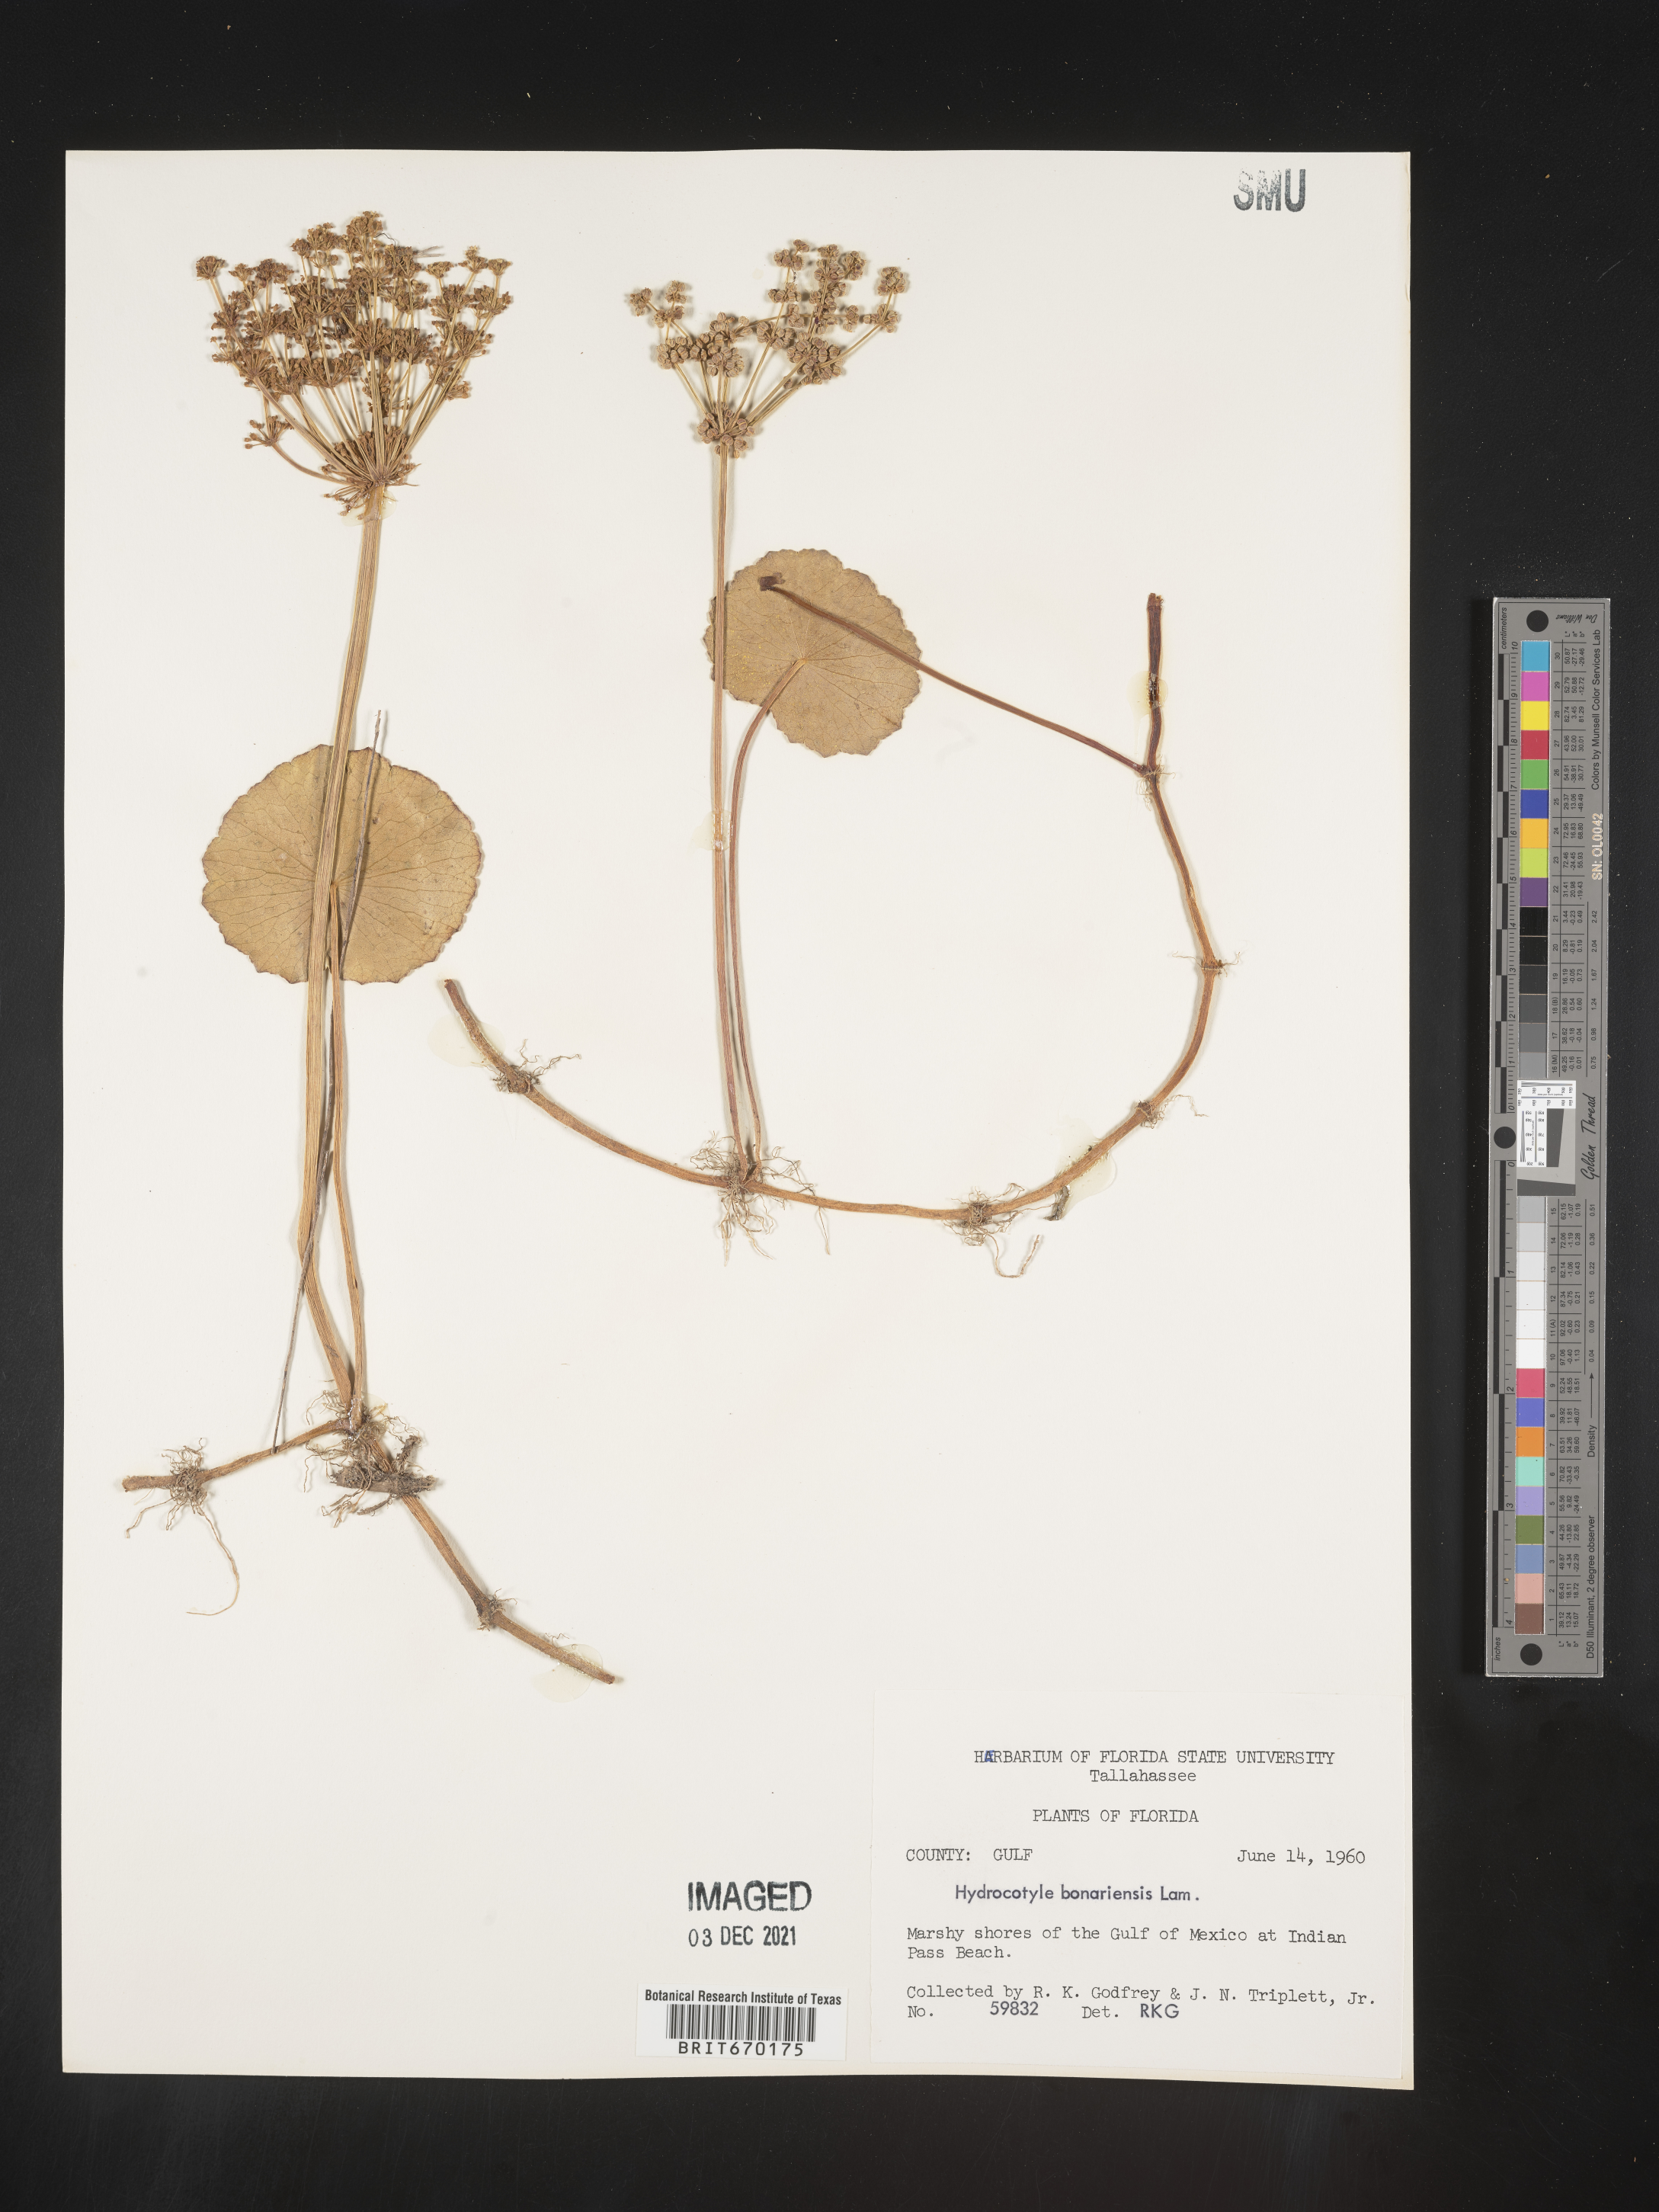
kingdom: Plantae
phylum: Tracheophyta
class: Magnoliopsida
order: Apiales
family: Araliaceae
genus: Hydrocotyle
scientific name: Hydrocotyle bonariensis
